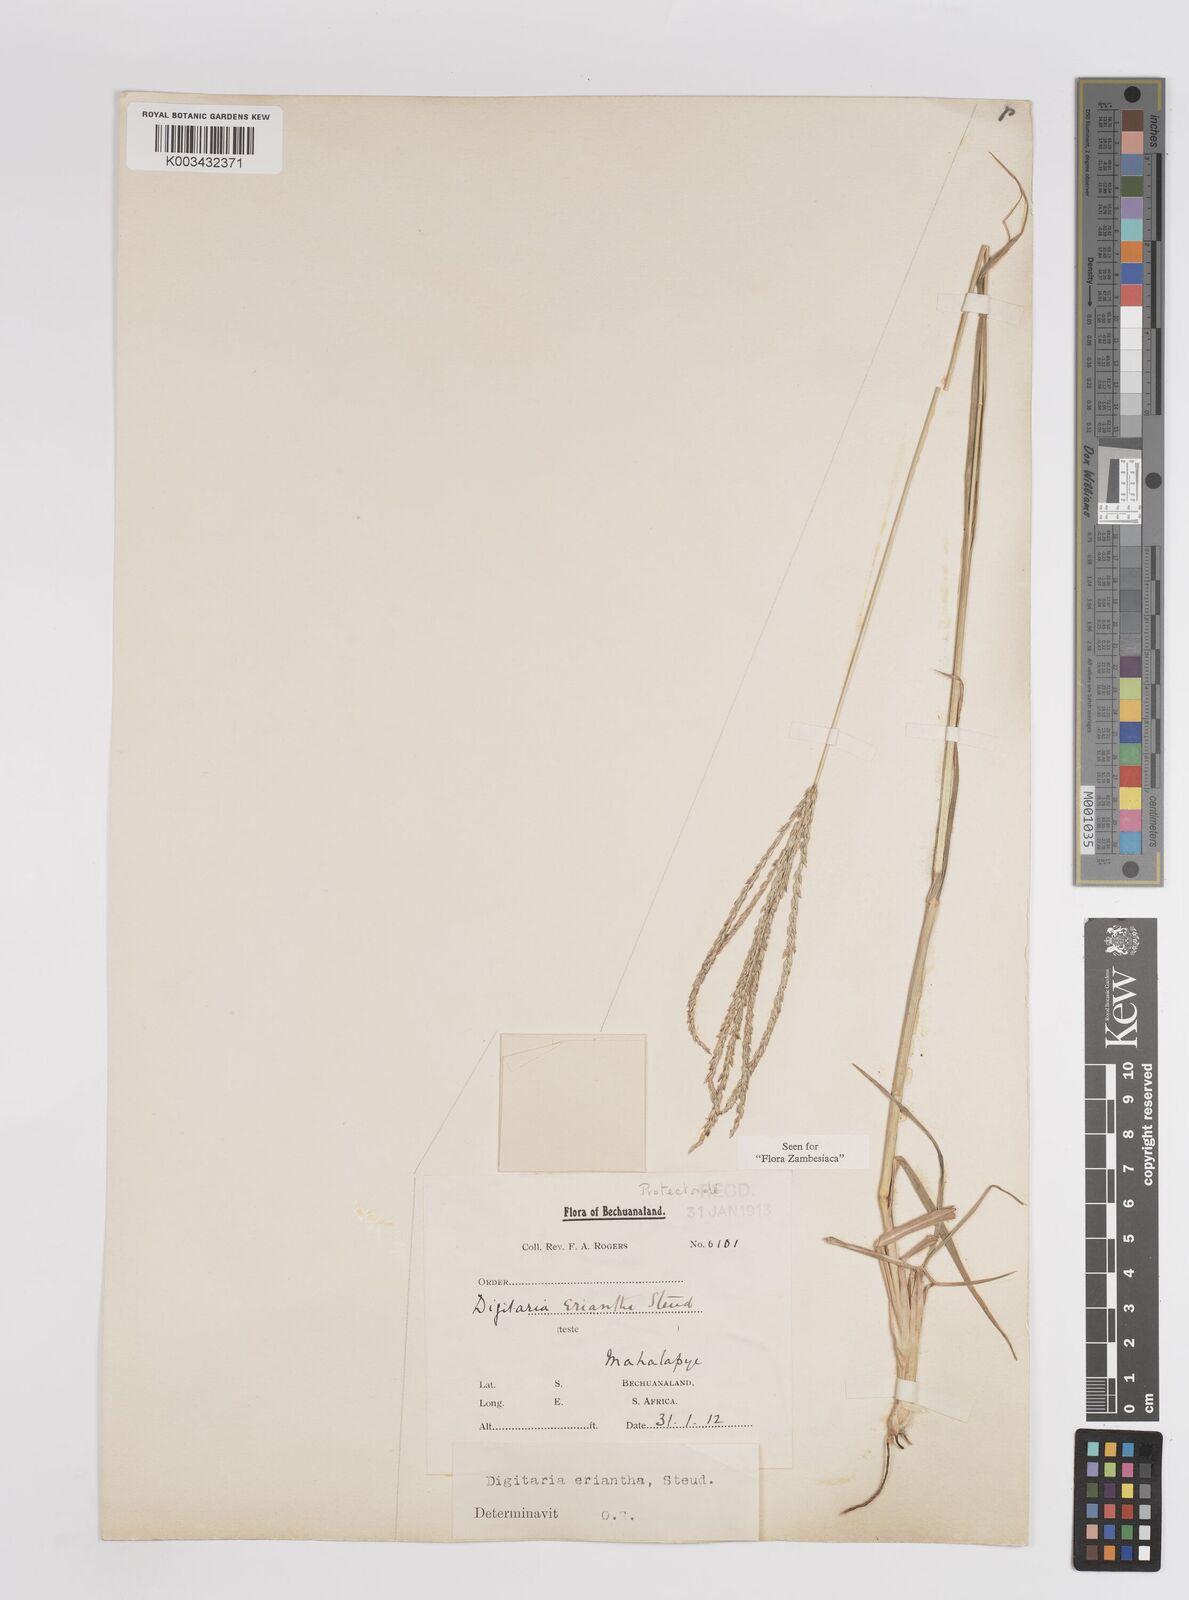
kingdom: Plantae
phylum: Tracheophyta
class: Liliopsida
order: Poales
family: Poaceae
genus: Digitaria
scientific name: Digitaria eriantha
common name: Digitgrass
